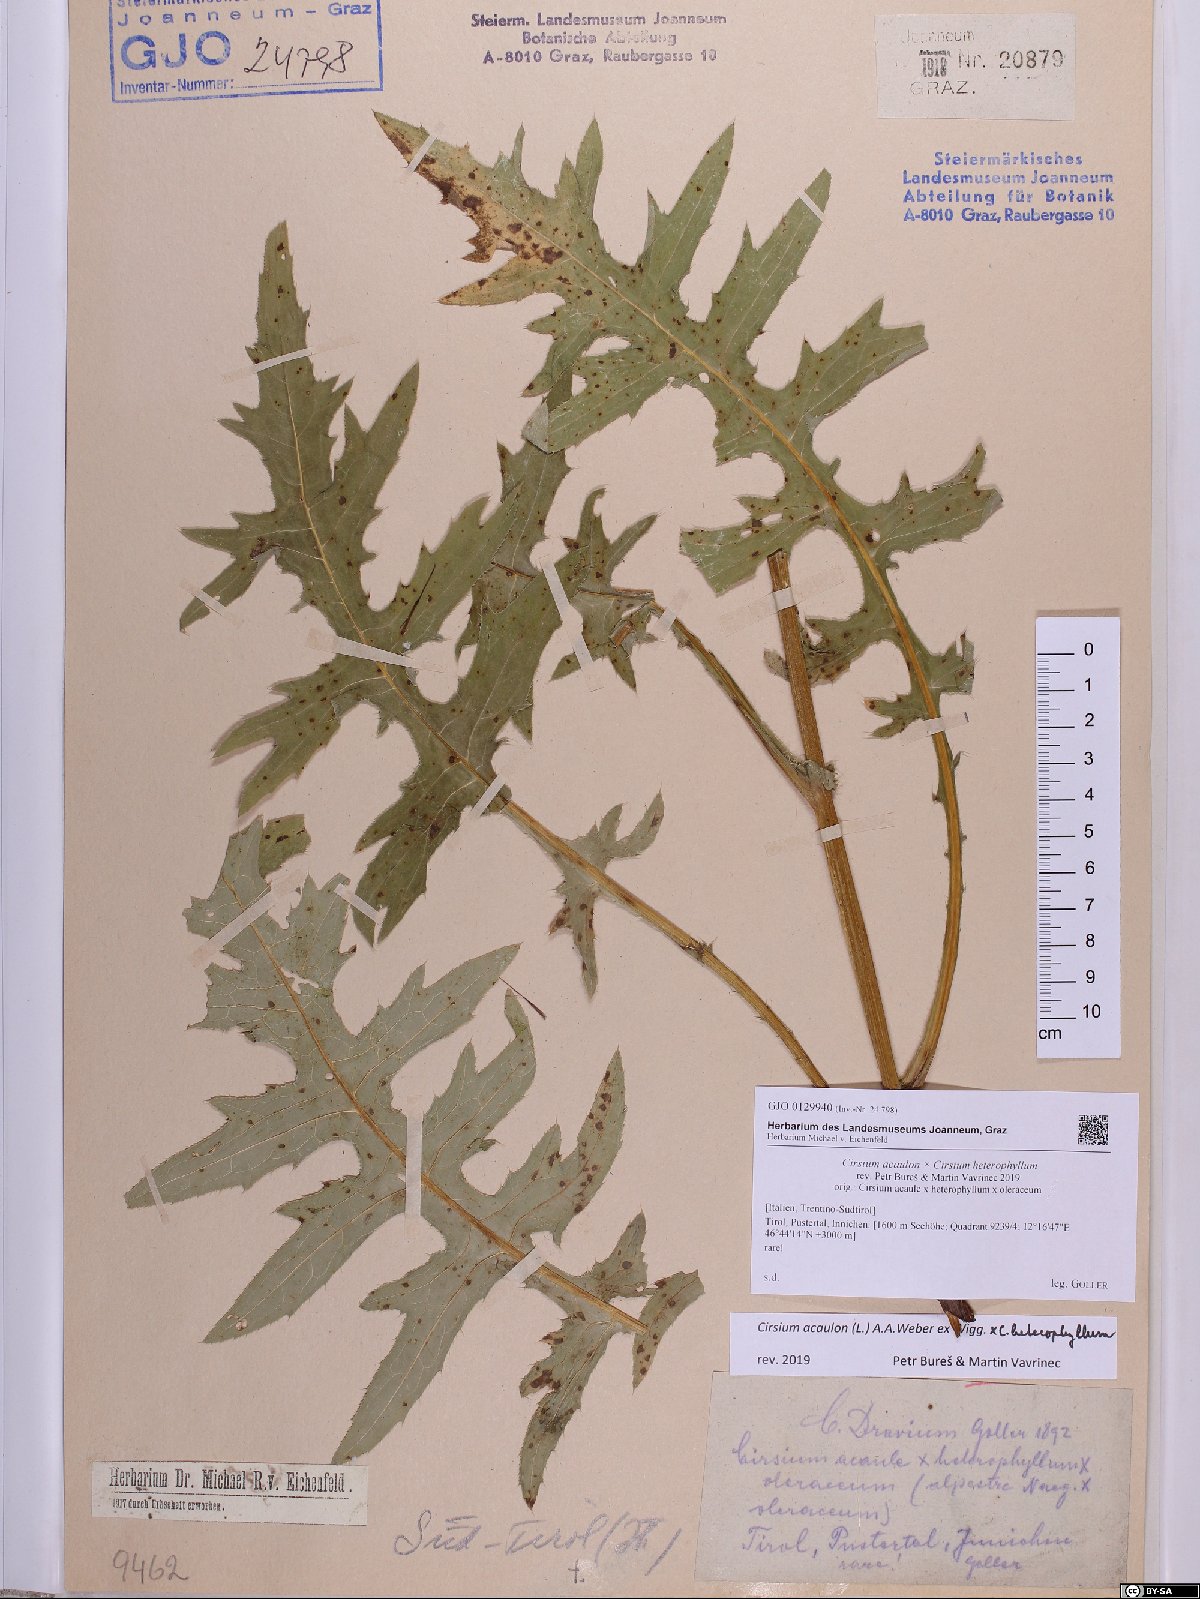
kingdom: Plantae
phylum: Tracheophyta
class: Magnoliopsida
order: Asterales
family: Asteraceae
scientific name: Asteraceae
